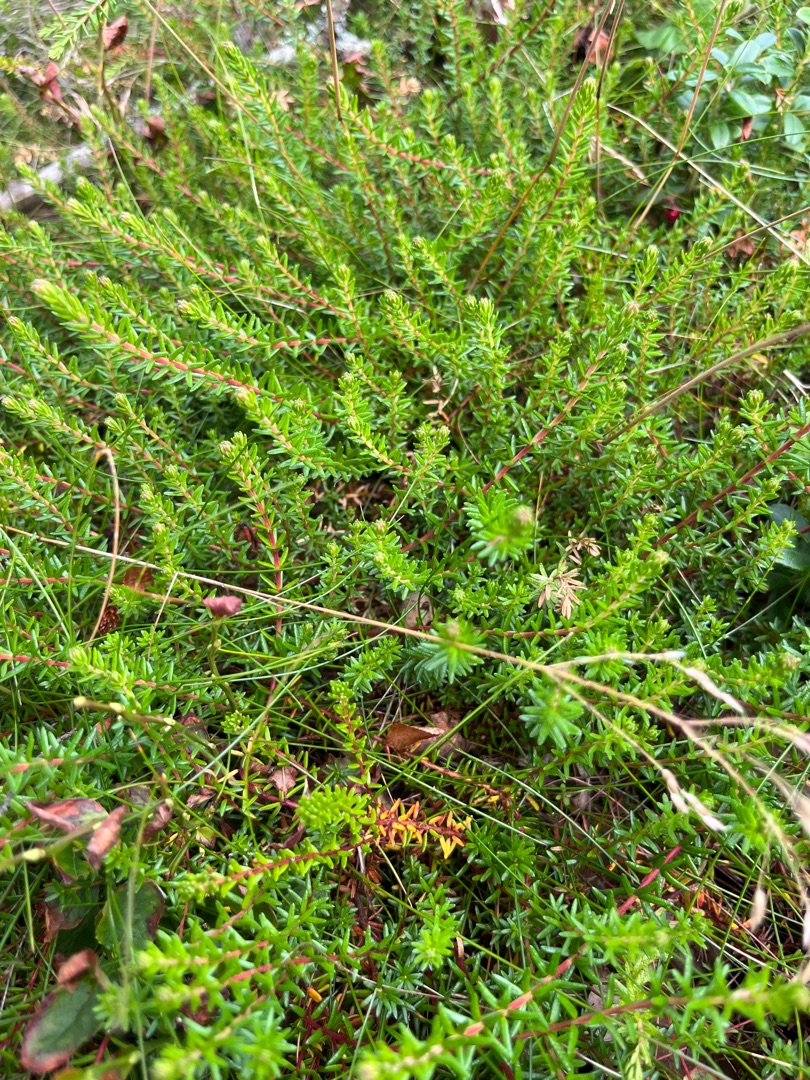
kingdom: Plantae
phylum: Tracheophyta
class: Magnoliopsida
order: Ericales
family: Ericaceae
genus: Empetrum
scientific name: Empetrum nigrum
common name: Revling
